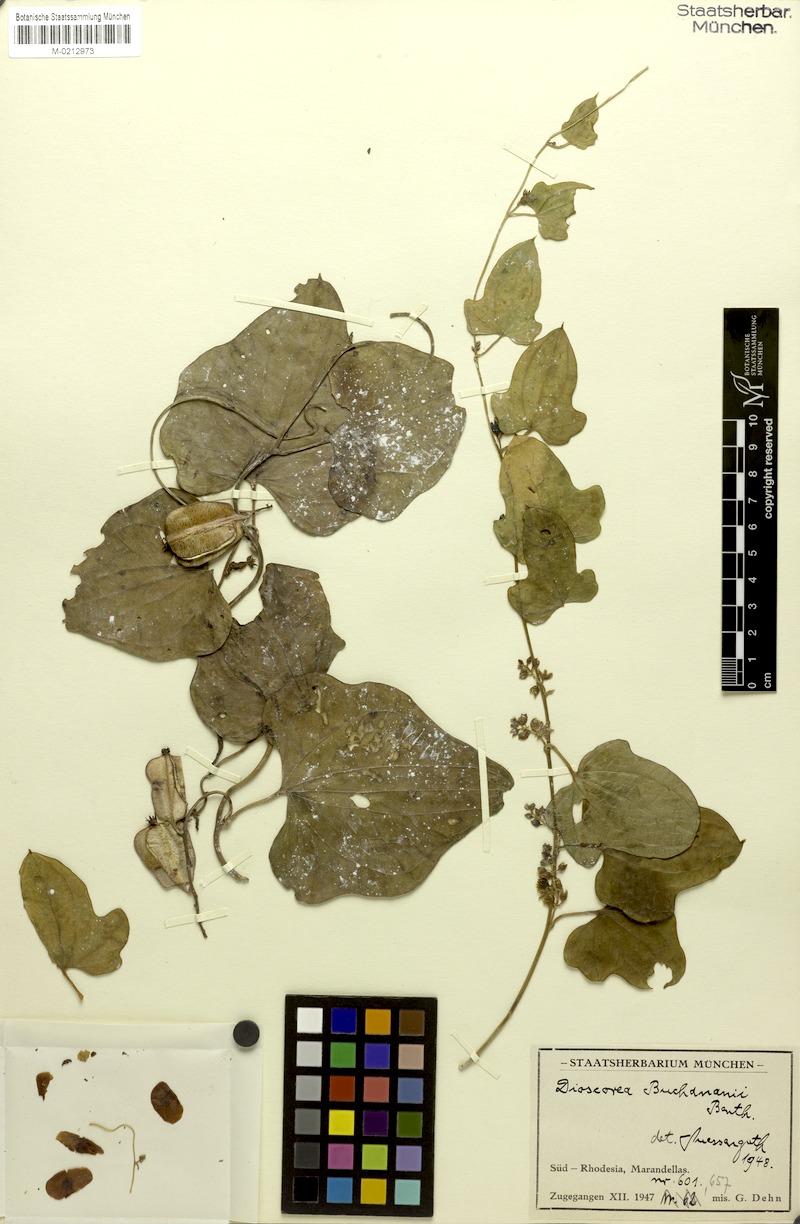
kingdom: Plantae
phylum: Tracheophyta
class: Liliopsida
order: Dioscoreales
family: Dioscoreaceae
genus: Dioscorea
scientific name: Dioscorea buchananii
